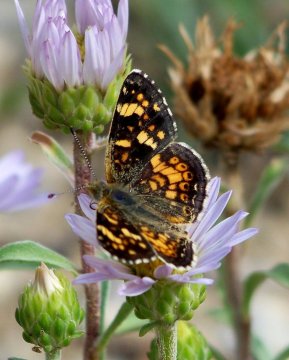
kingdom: Animalia
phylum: Arthropoda
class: Insecta
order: Lepidoptera
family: Nymphalidae
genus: Phyciodes
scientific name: Phyciodes tharos
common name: Field Crescent
